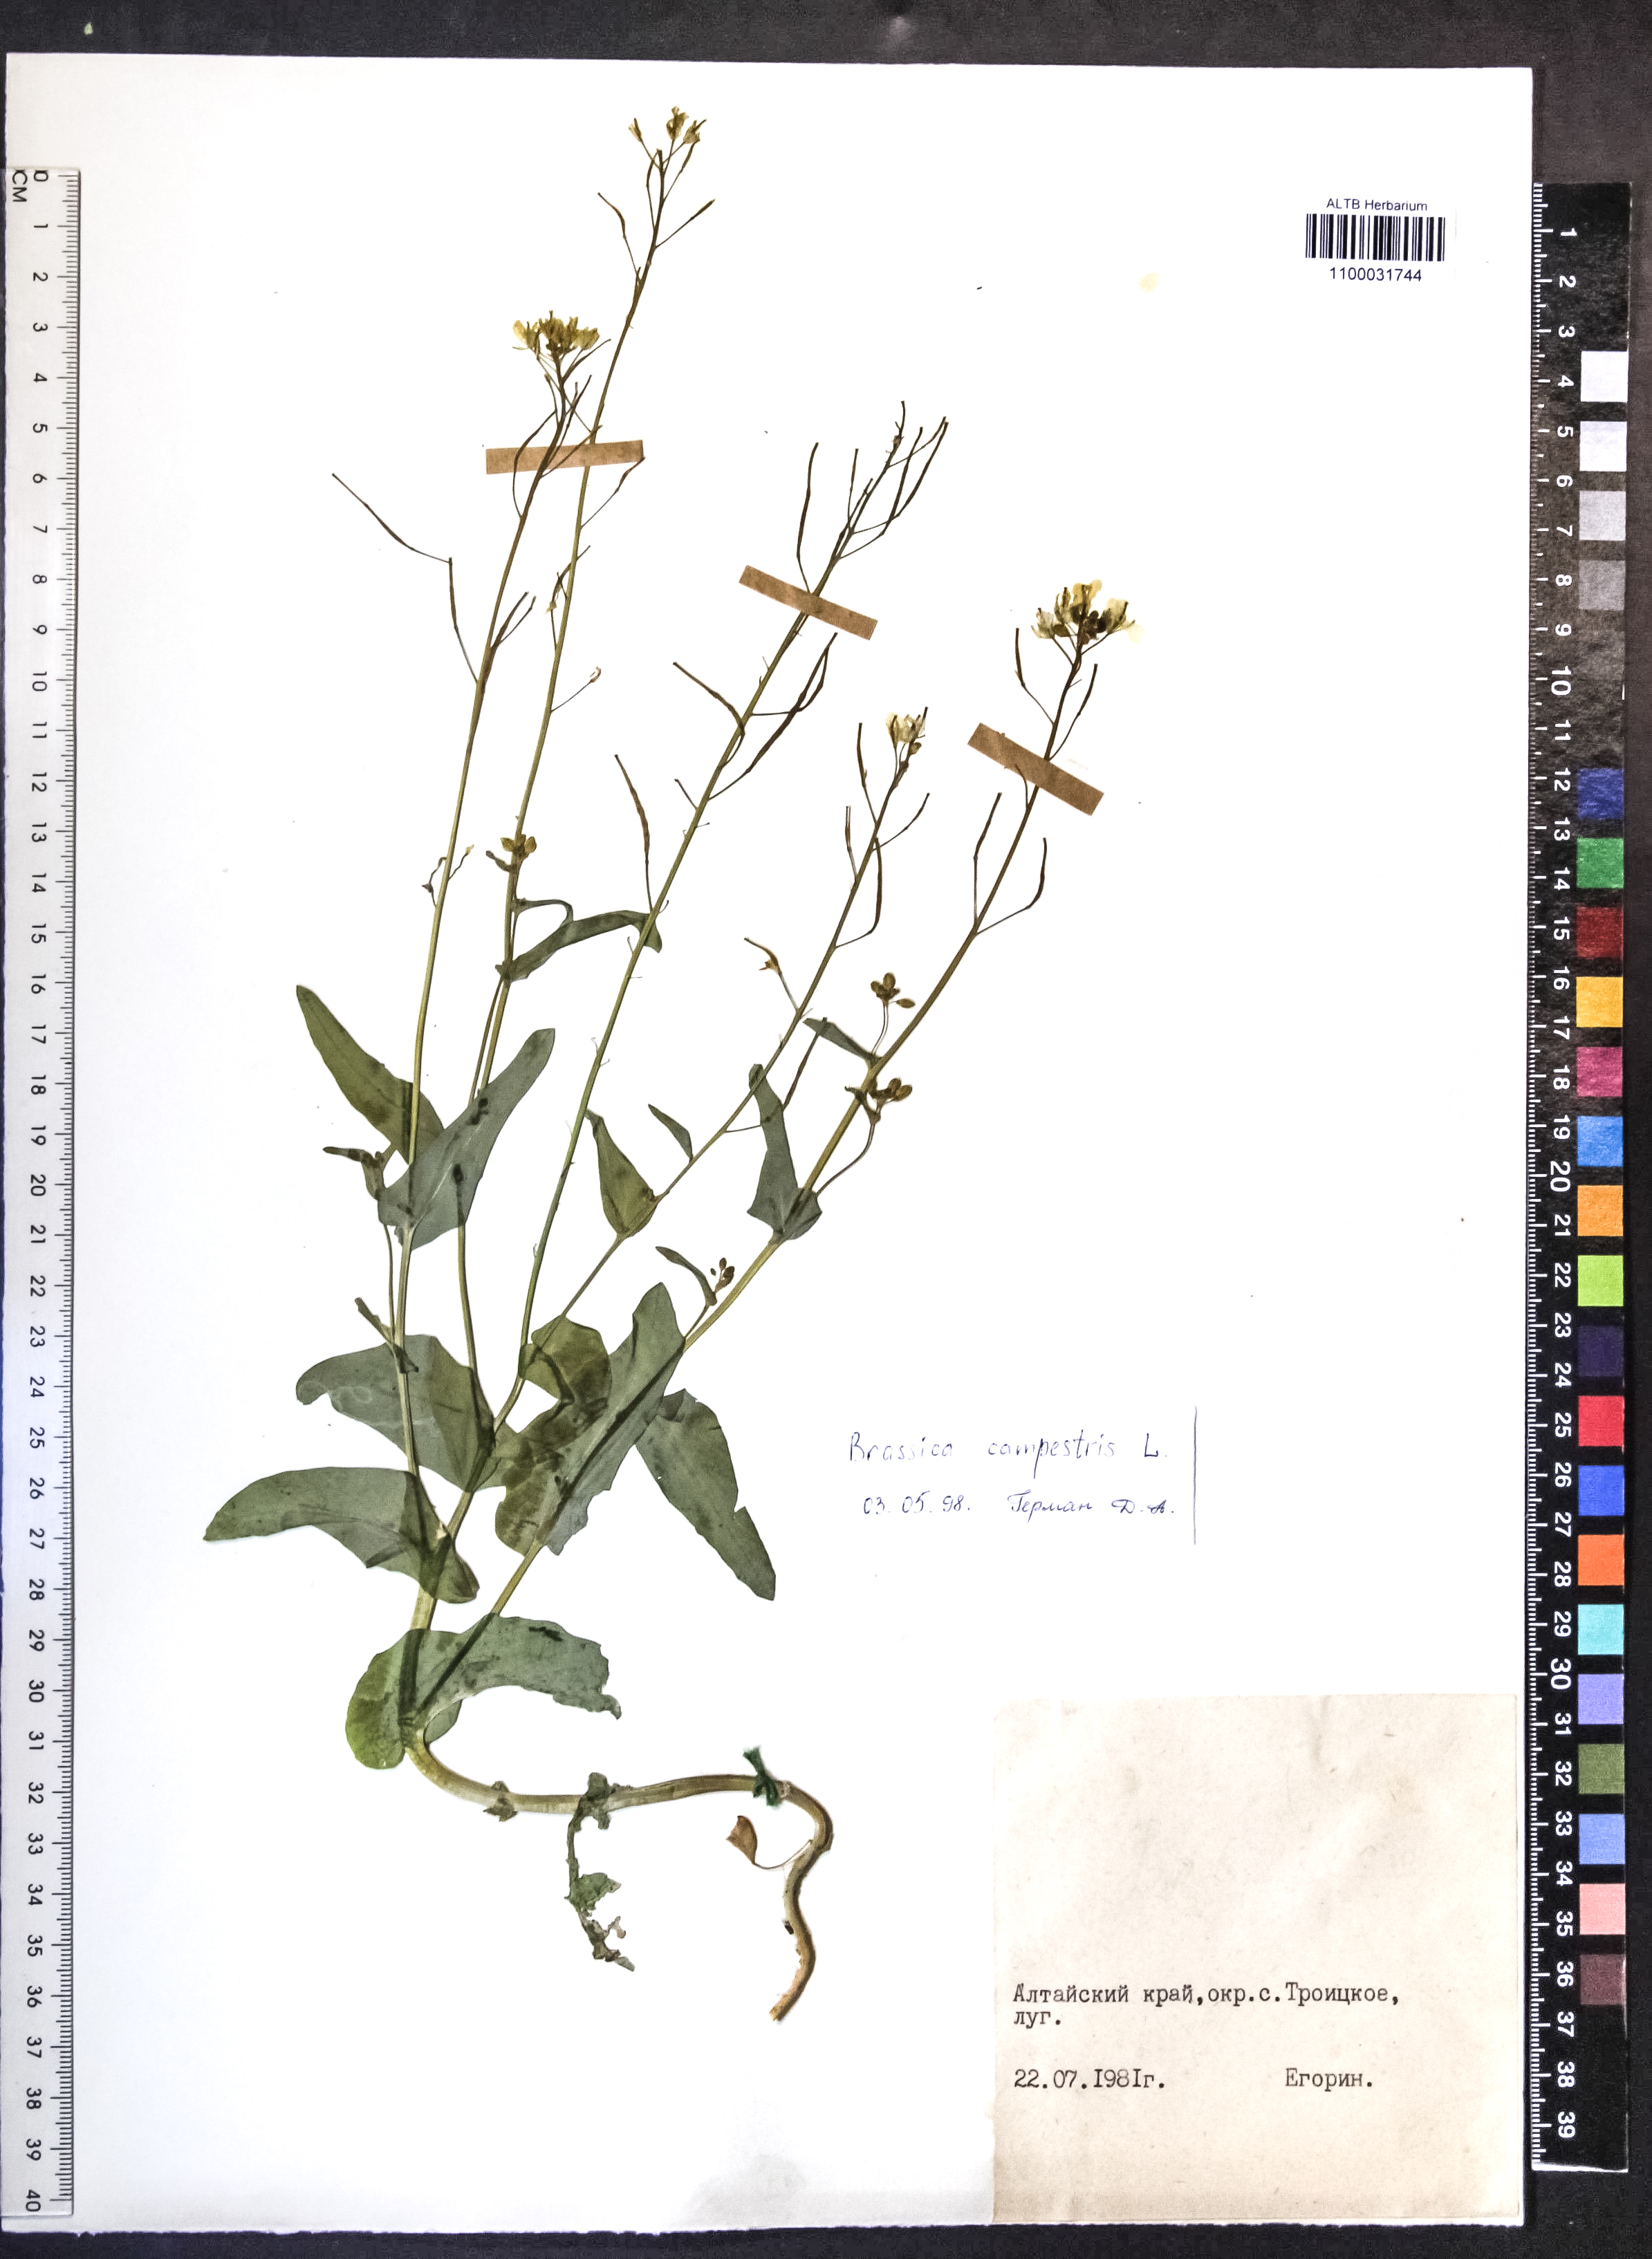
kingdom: Plantae
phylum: Tracheophyta
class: Magnoliopsida
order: Brassicales
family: Brassicaceae
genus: Brassica
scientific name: Brassica rapa
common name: Field mustard
